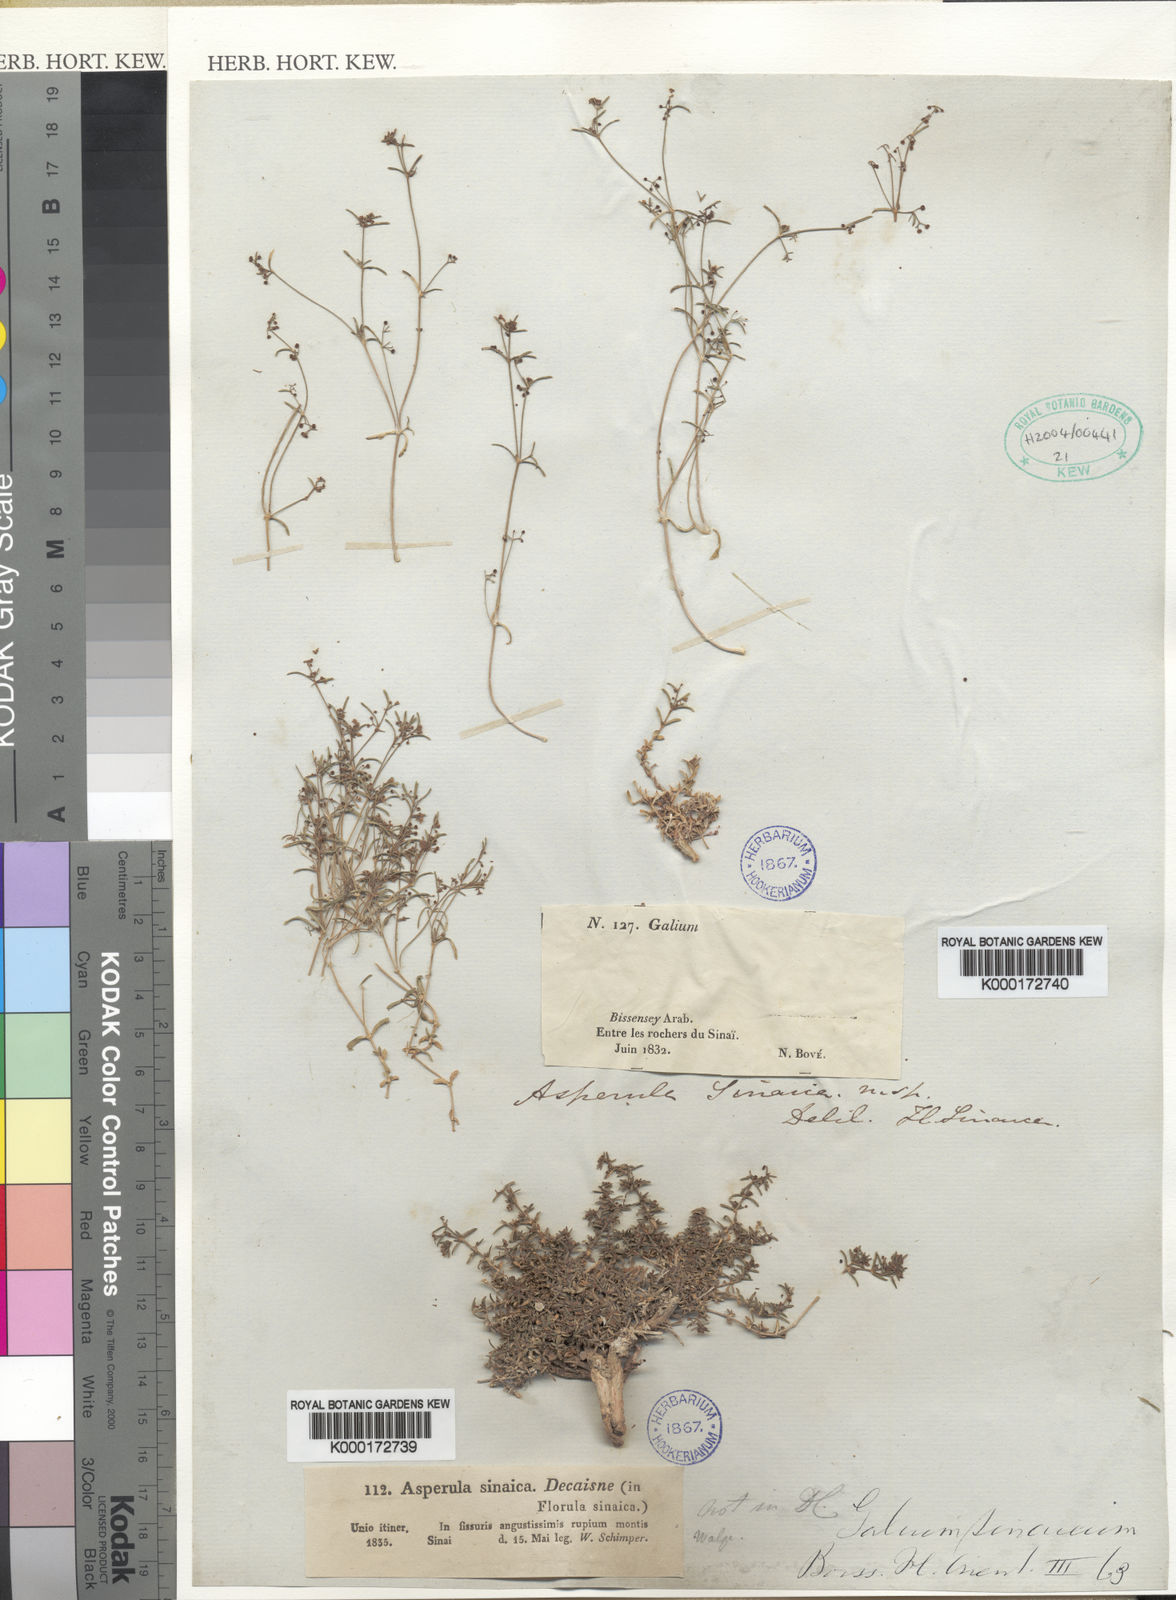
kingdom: Plantae
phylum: Tracheophyta
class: Magnoliopsida
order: Gentianales
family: Rubiaceae
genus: Asperula
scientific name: Asperula
